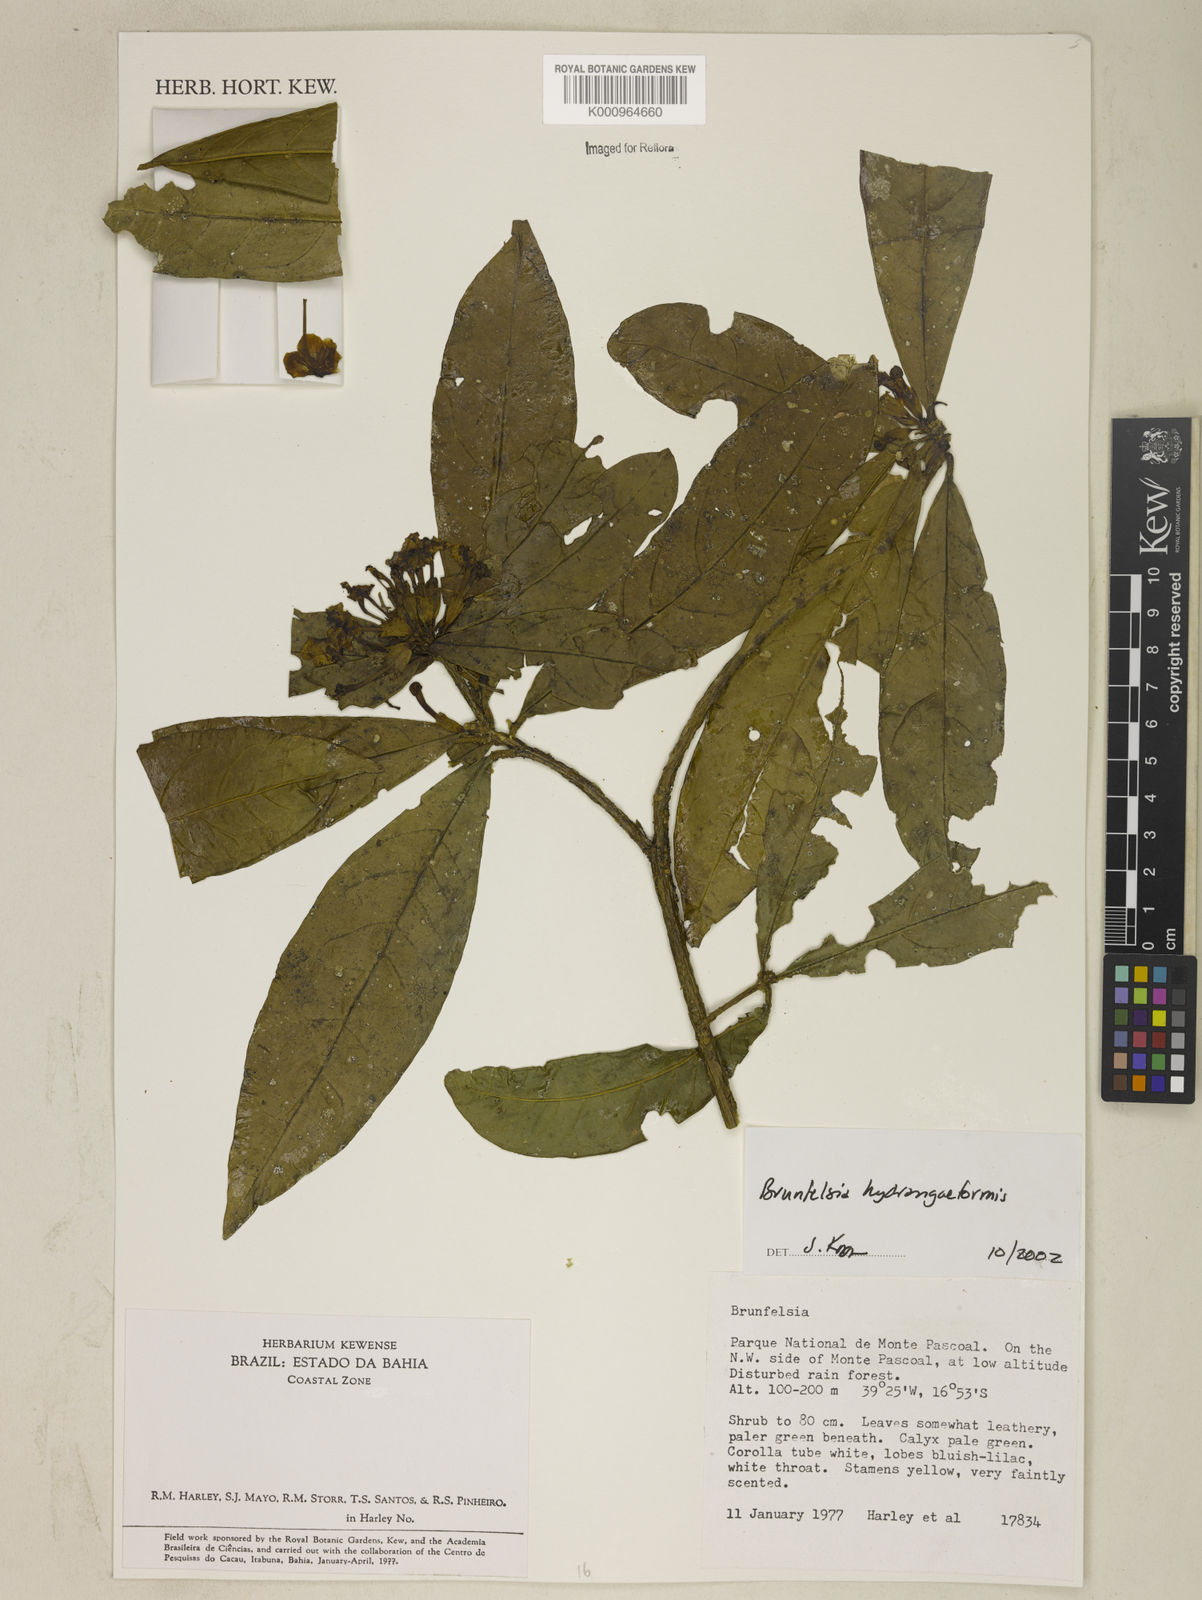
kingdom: Plantae
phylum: Tracheophyta
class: Magnoliopsida
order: Solanales
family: Solanaceae
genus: Brunfelsia
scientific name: Brunfelsia hydrangeiformis
